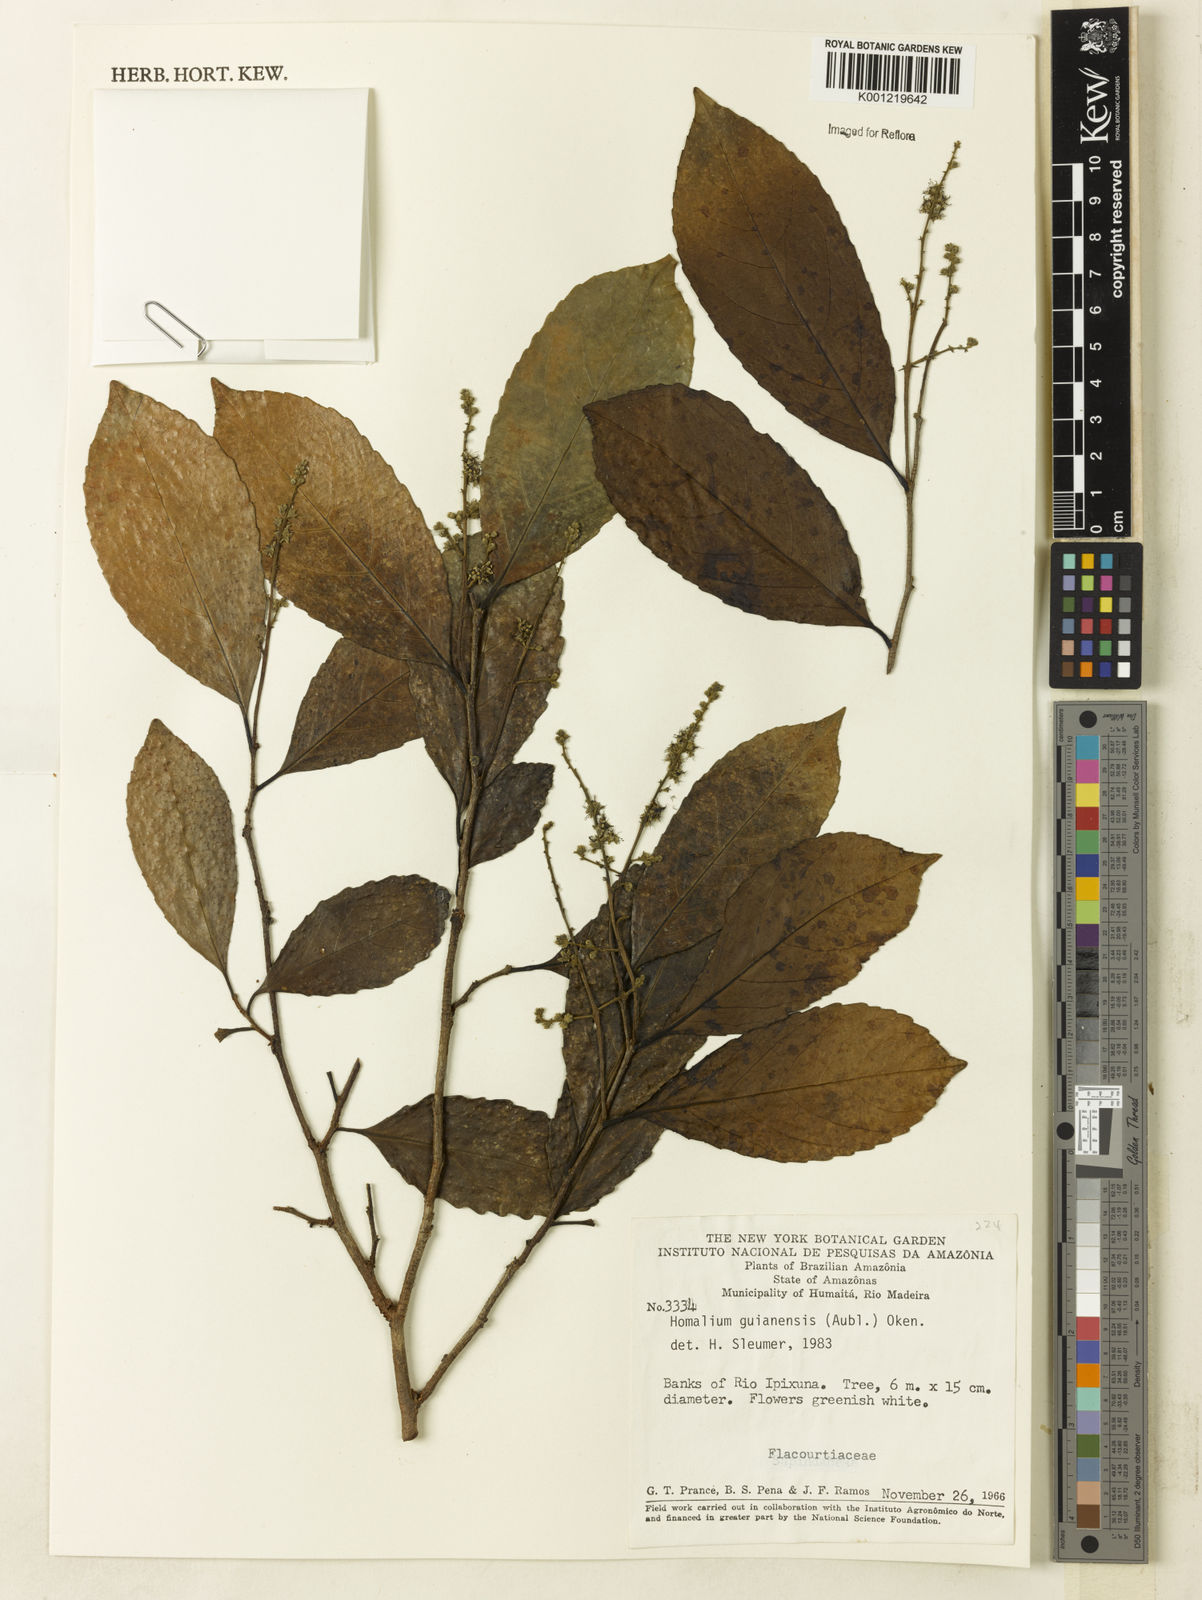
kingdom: Plantae
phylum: Tracheophyta
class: Magnoliopsida
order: Malpighiales
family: Salicaceae
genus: Homalium
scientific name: Homalium guianense
